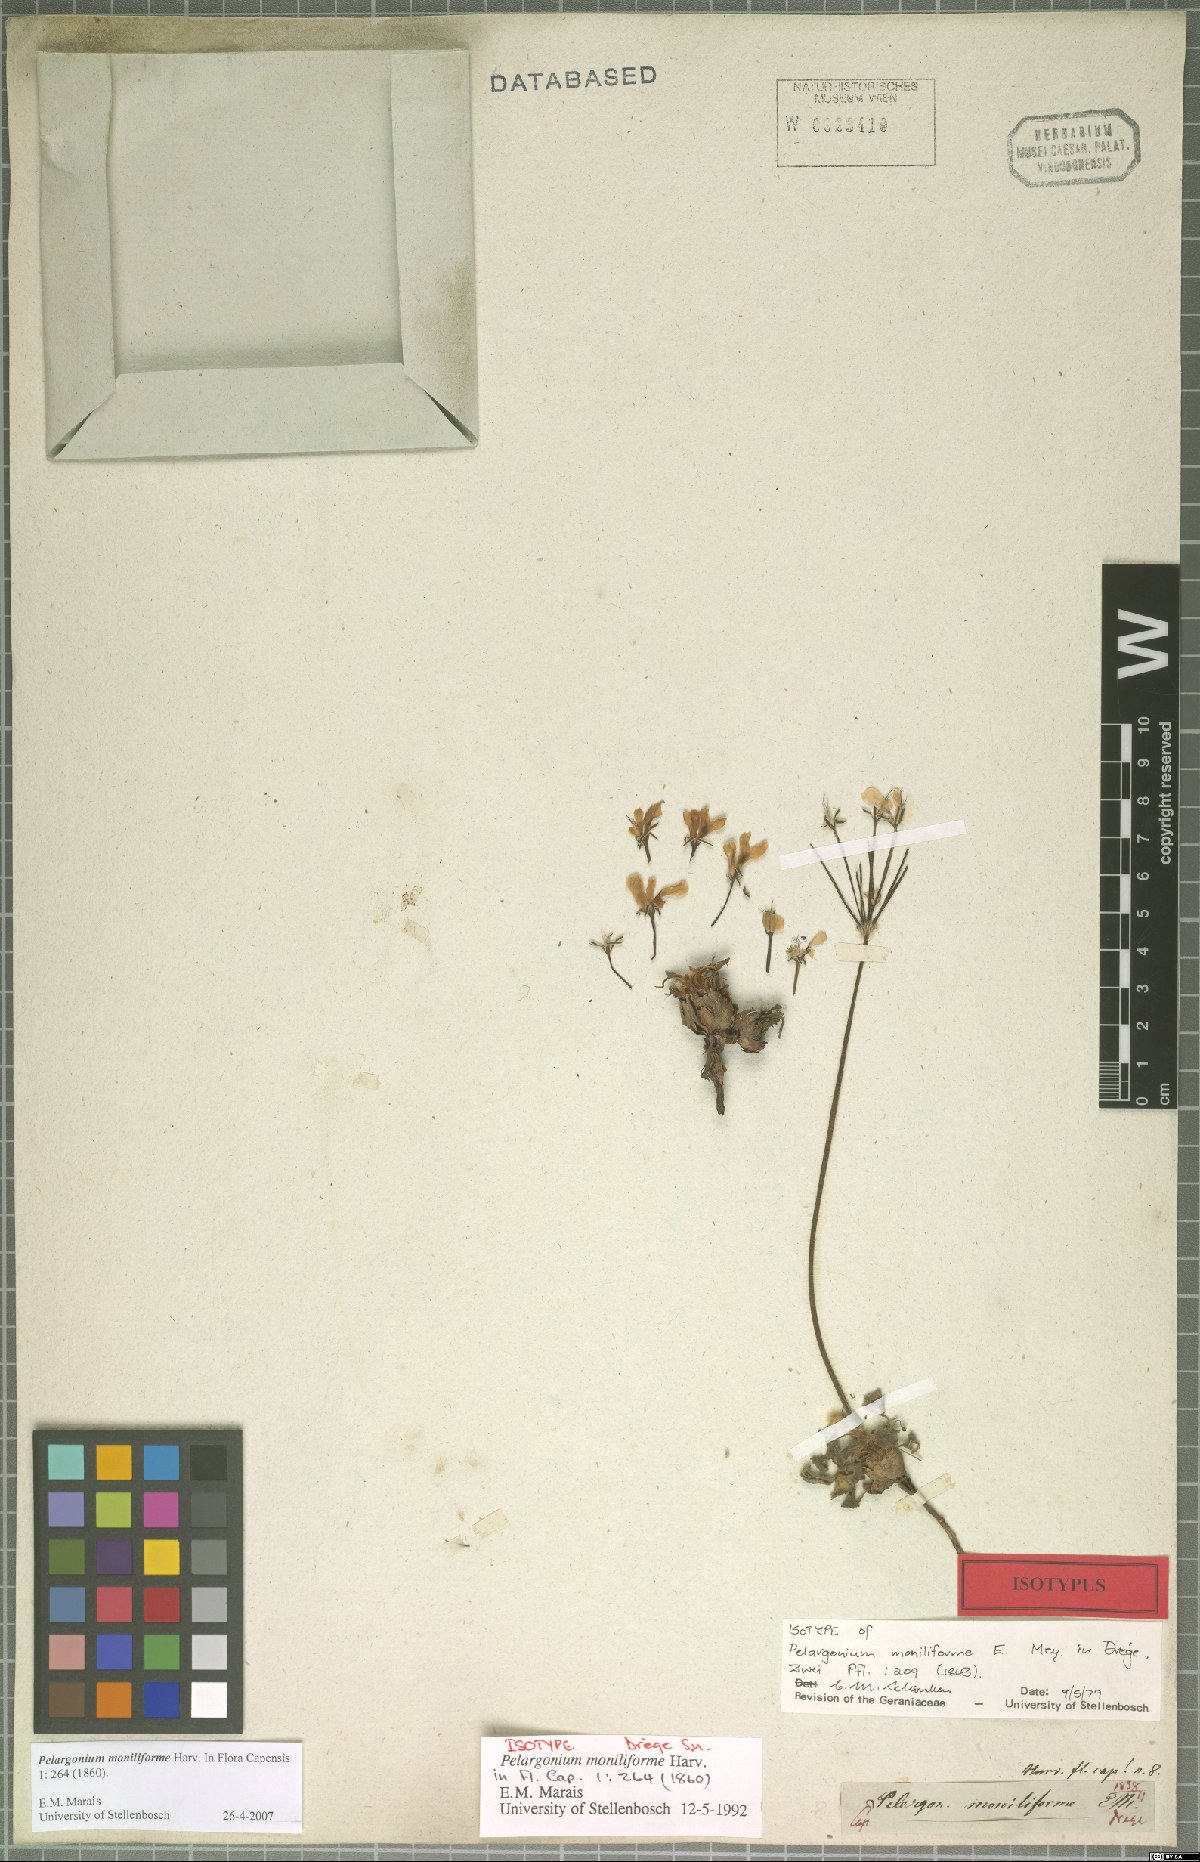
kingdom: Plantae
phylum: Tracheophyta
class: Magnoliopsida
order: Geraniales
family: Geraniaceae
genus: Pelargonium
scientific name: Pelargonium moniliforme
